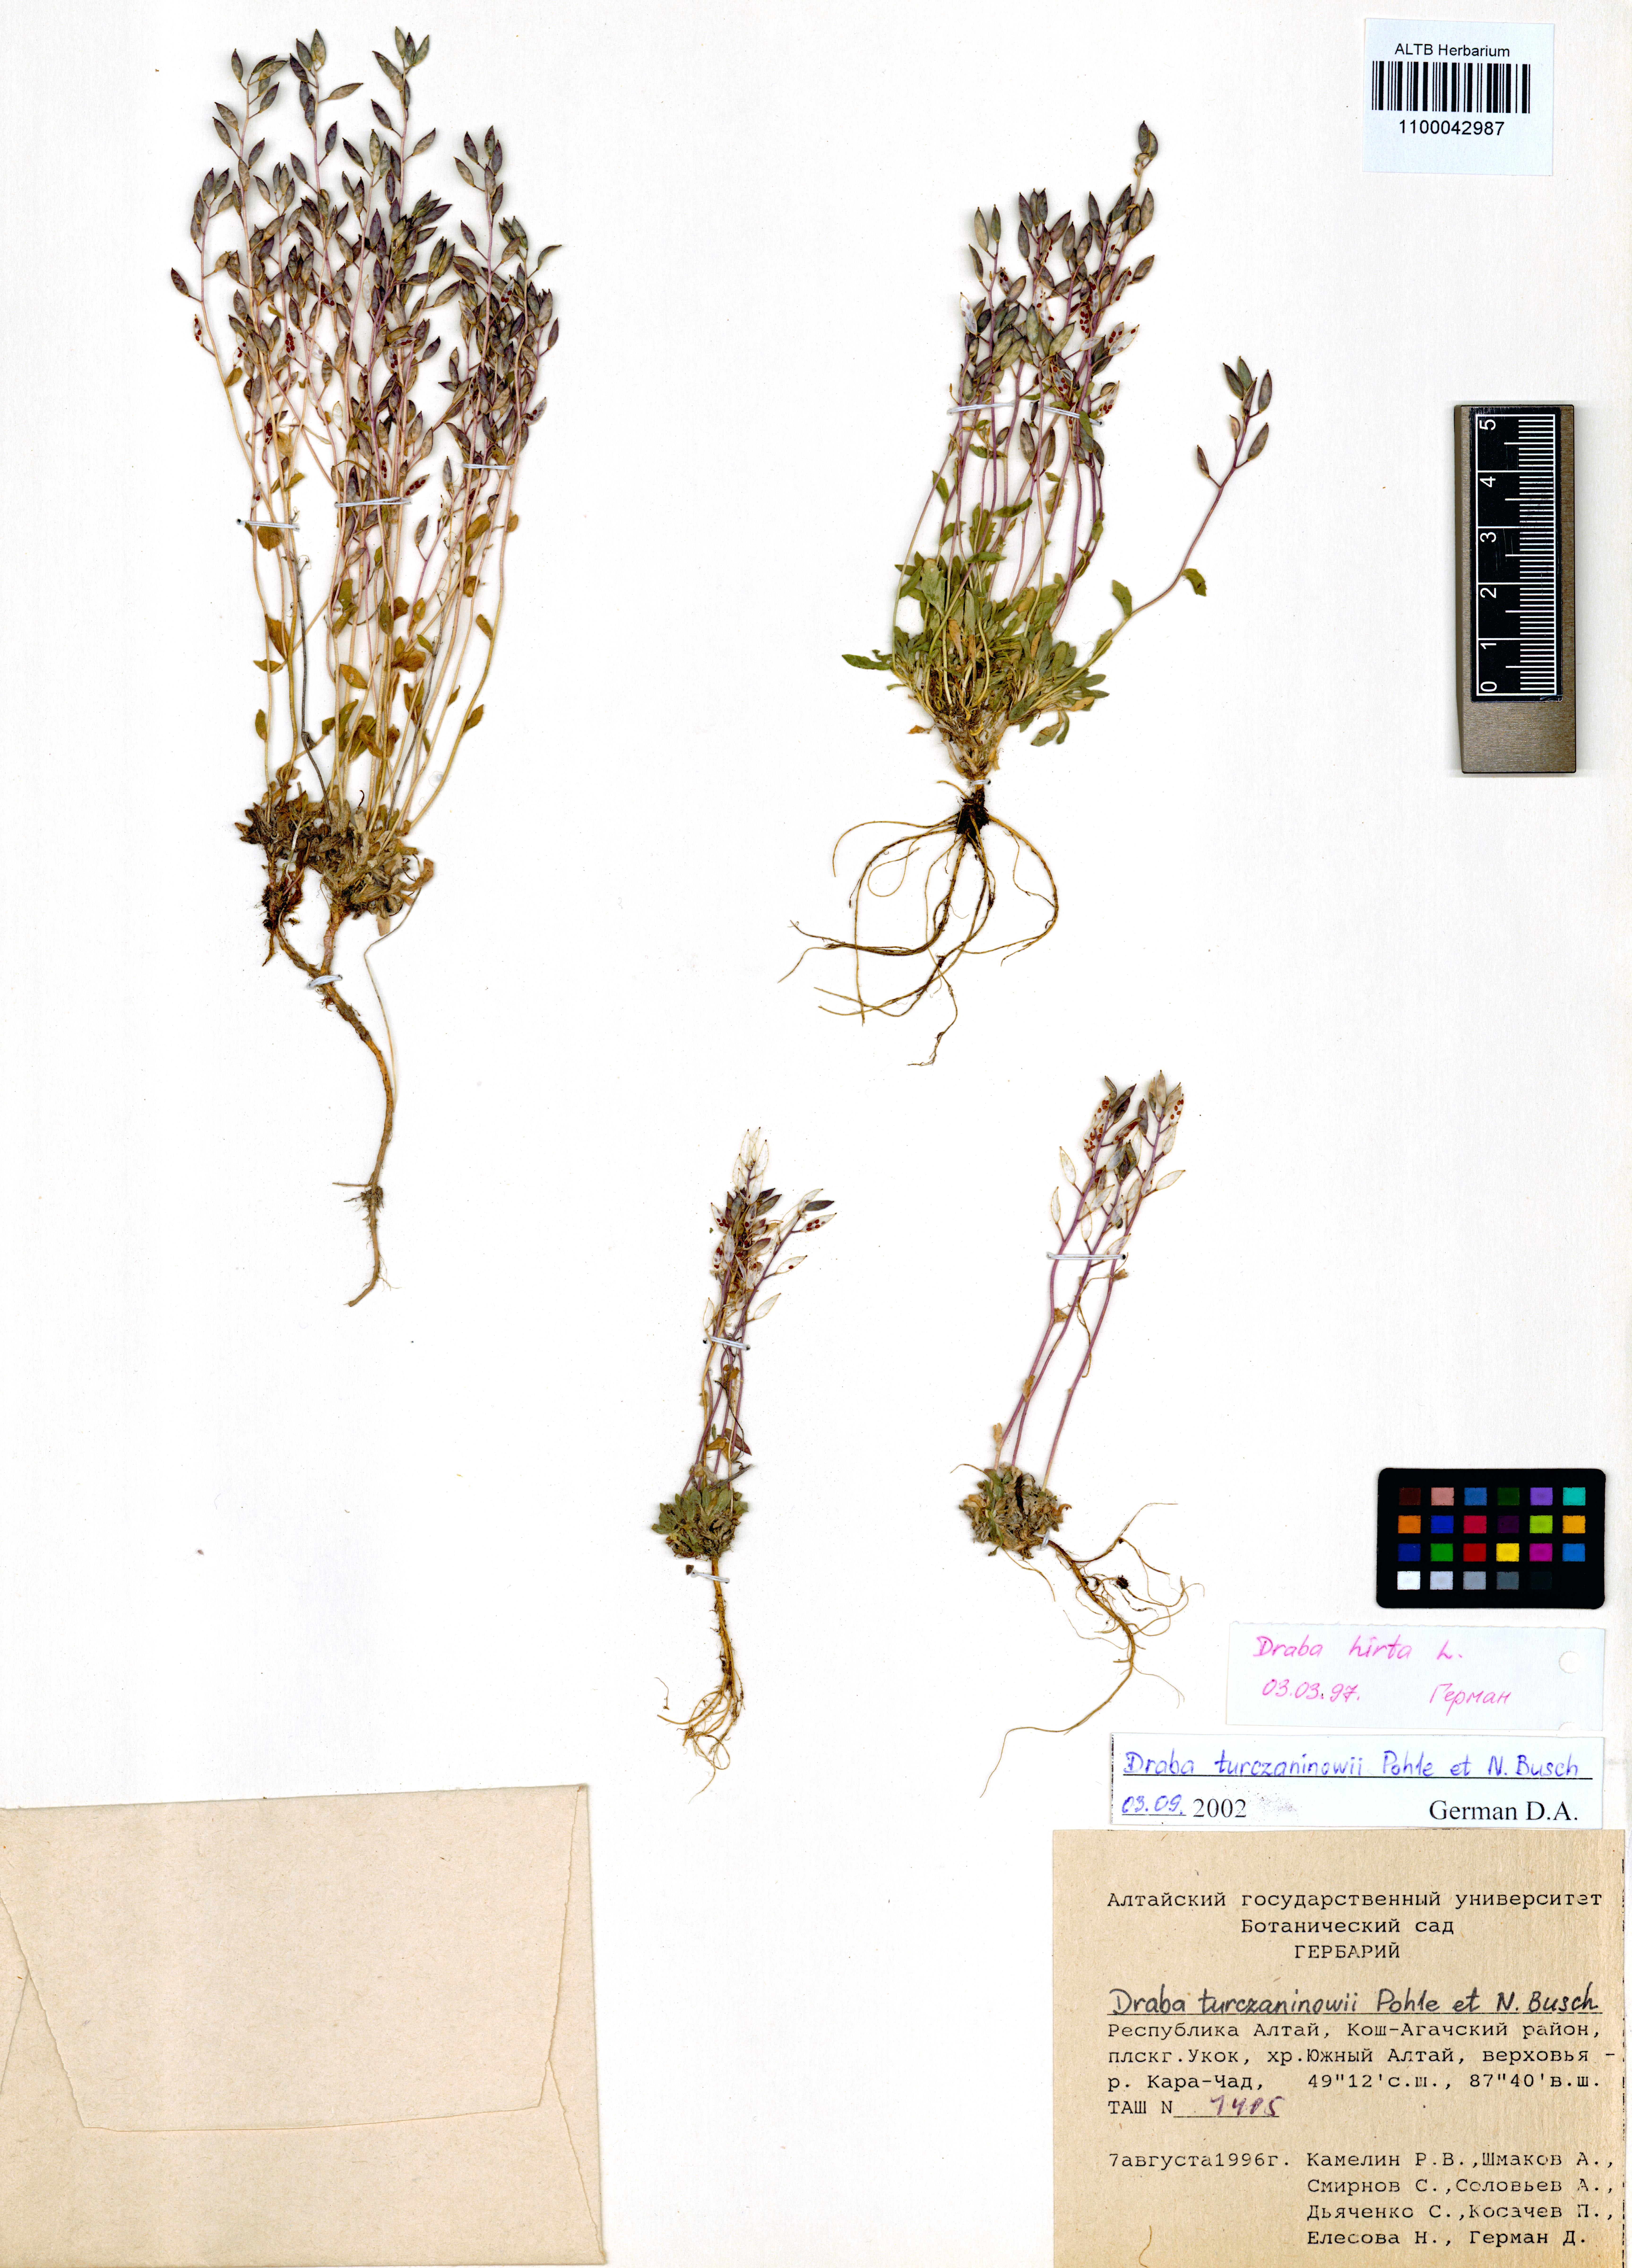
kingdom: Plantae
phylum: Tracheophyta
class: Magnoliopsida
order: Brassicales
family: Brassicaceae
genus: Draba
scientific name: Draba turczaninovii
